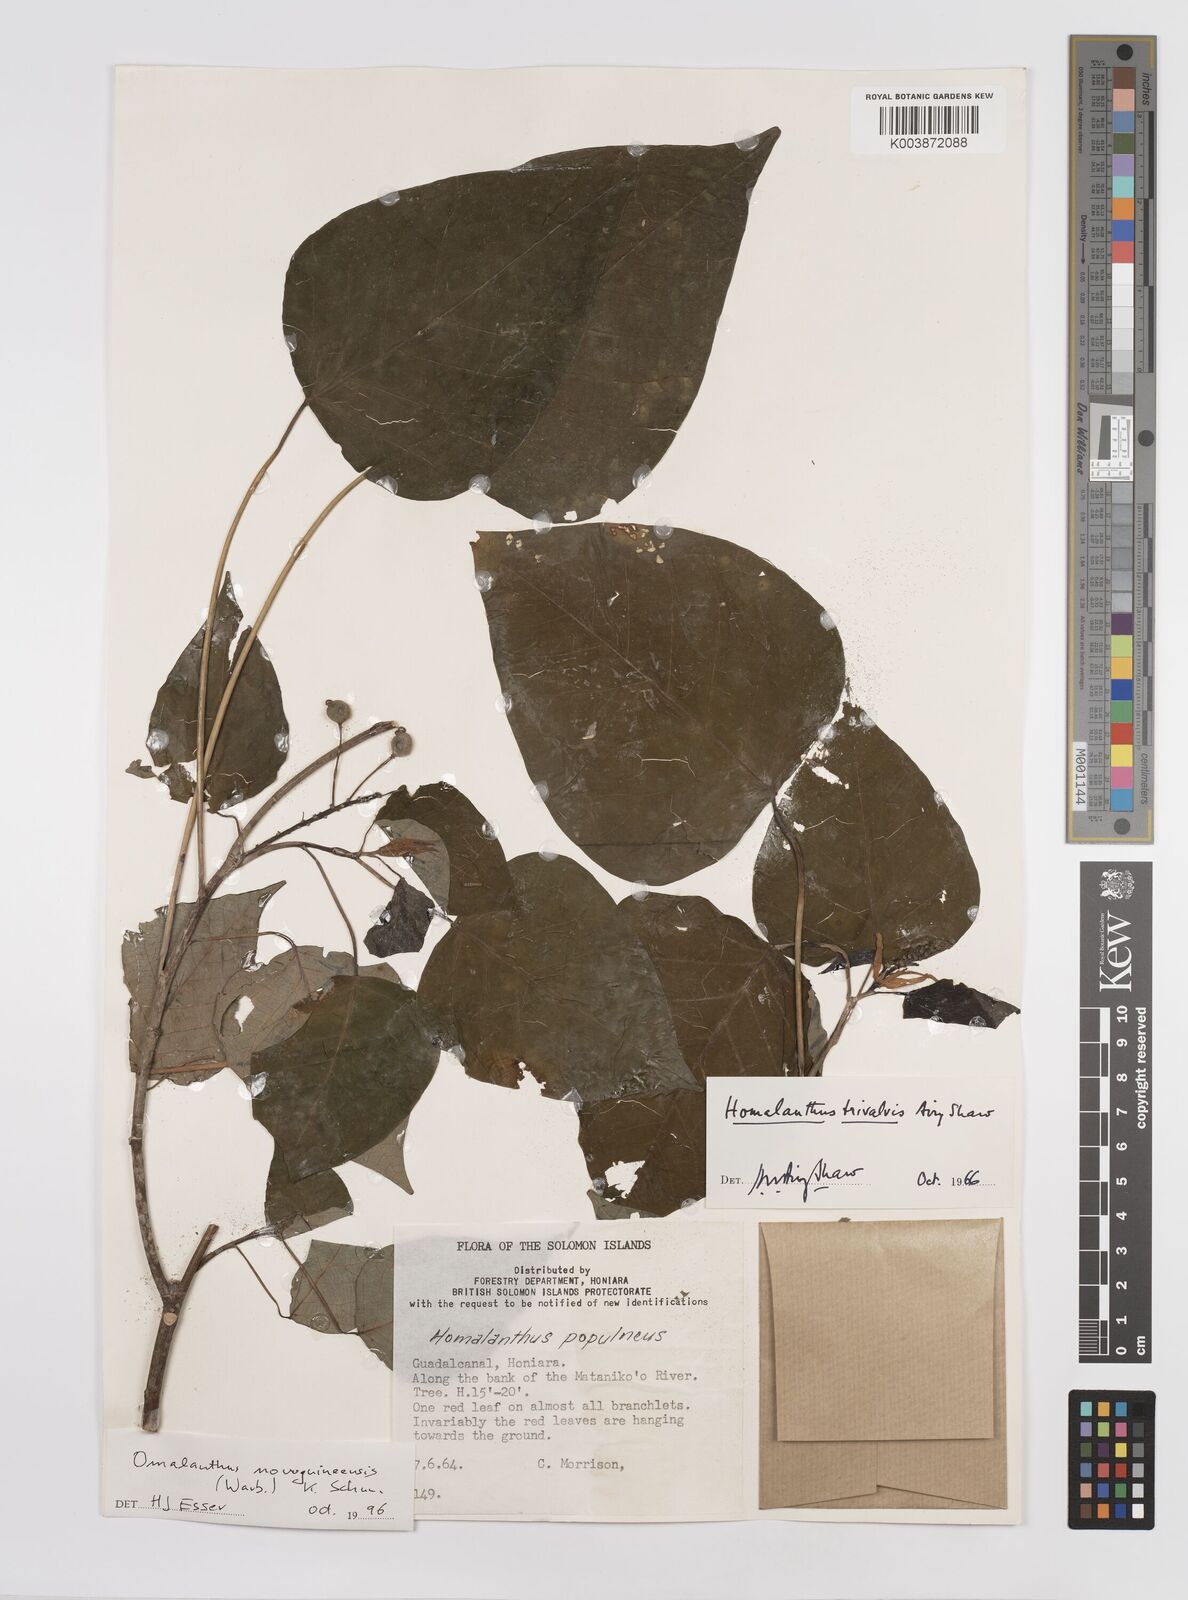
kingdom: Plantae
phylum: Tracheophyta
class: Magnoliopsida
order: Malpighiales
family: Euphorbiaceae
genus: Homalanthus
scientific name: Homalanthus novoguineensis
